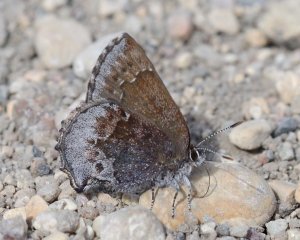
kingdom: Animalia
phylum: Arthropoda
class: Insecta
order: Lepidoptera
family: Lycaenidae
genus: Callophrys
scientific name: Callophrys polios
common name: Hoary Elfin
